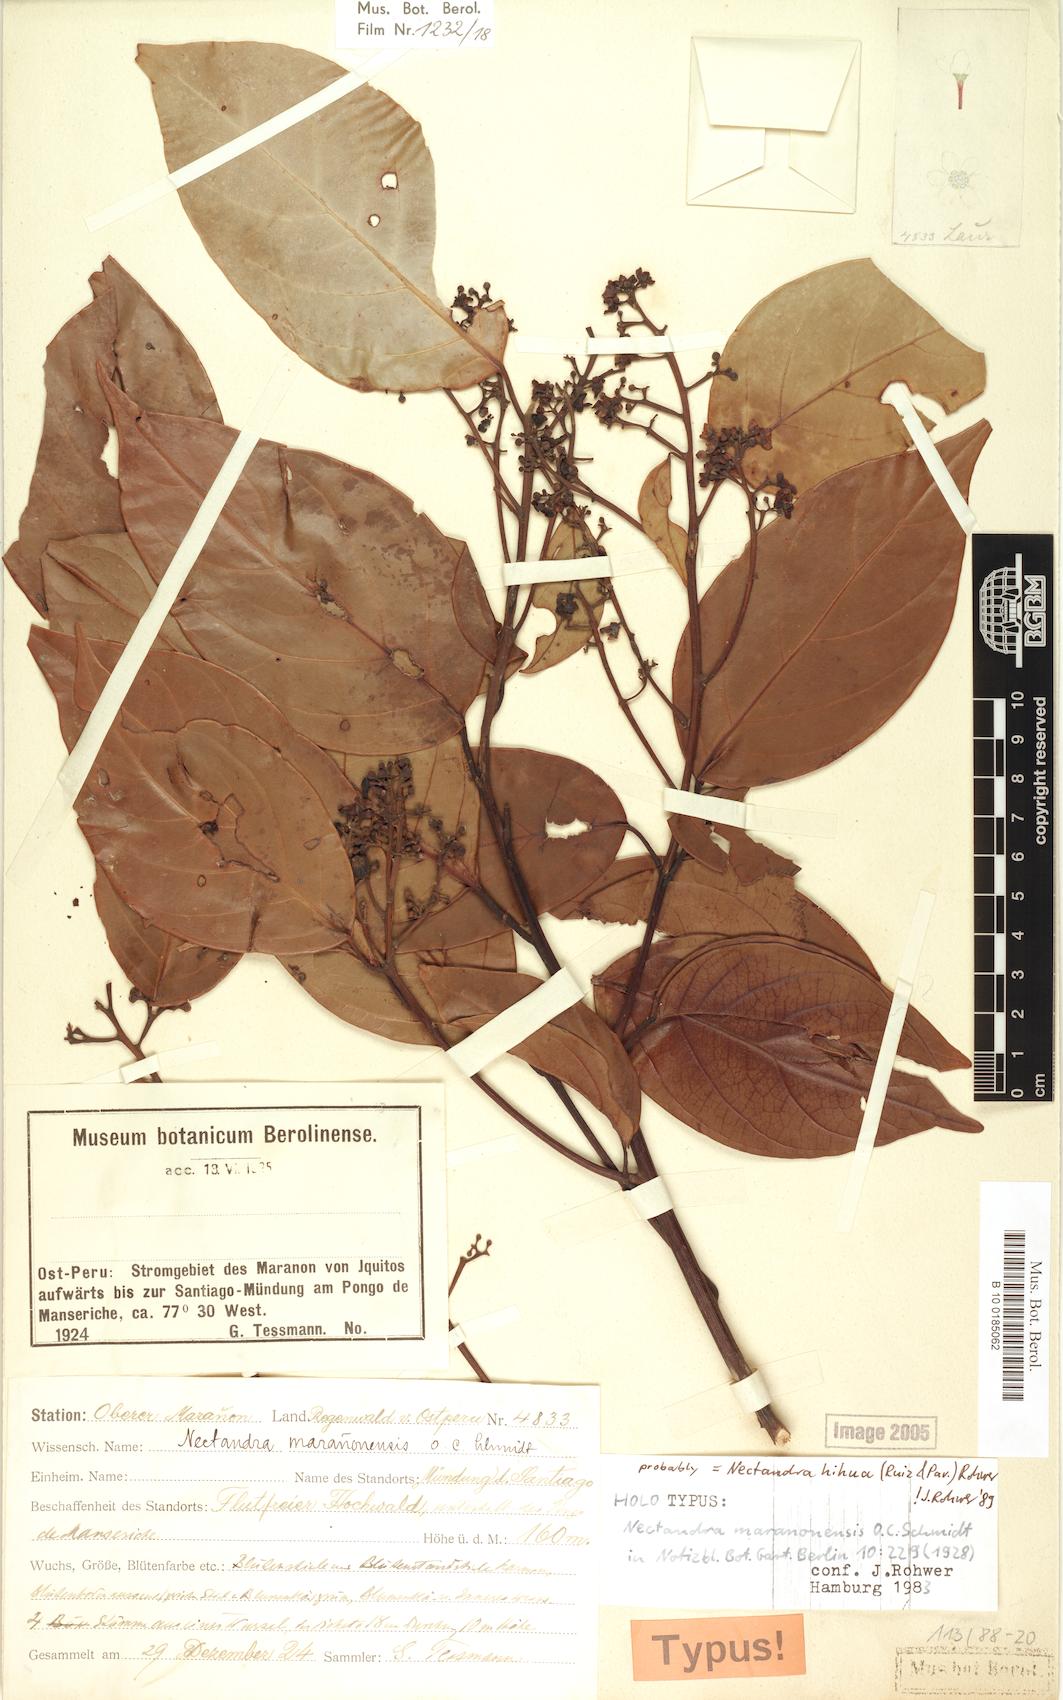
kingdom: Plantae
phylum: Tracheophyta
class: Magnoliopsida
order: Laurales
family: Lauraceae
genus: Nectandra
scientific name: Nectandra hihua
